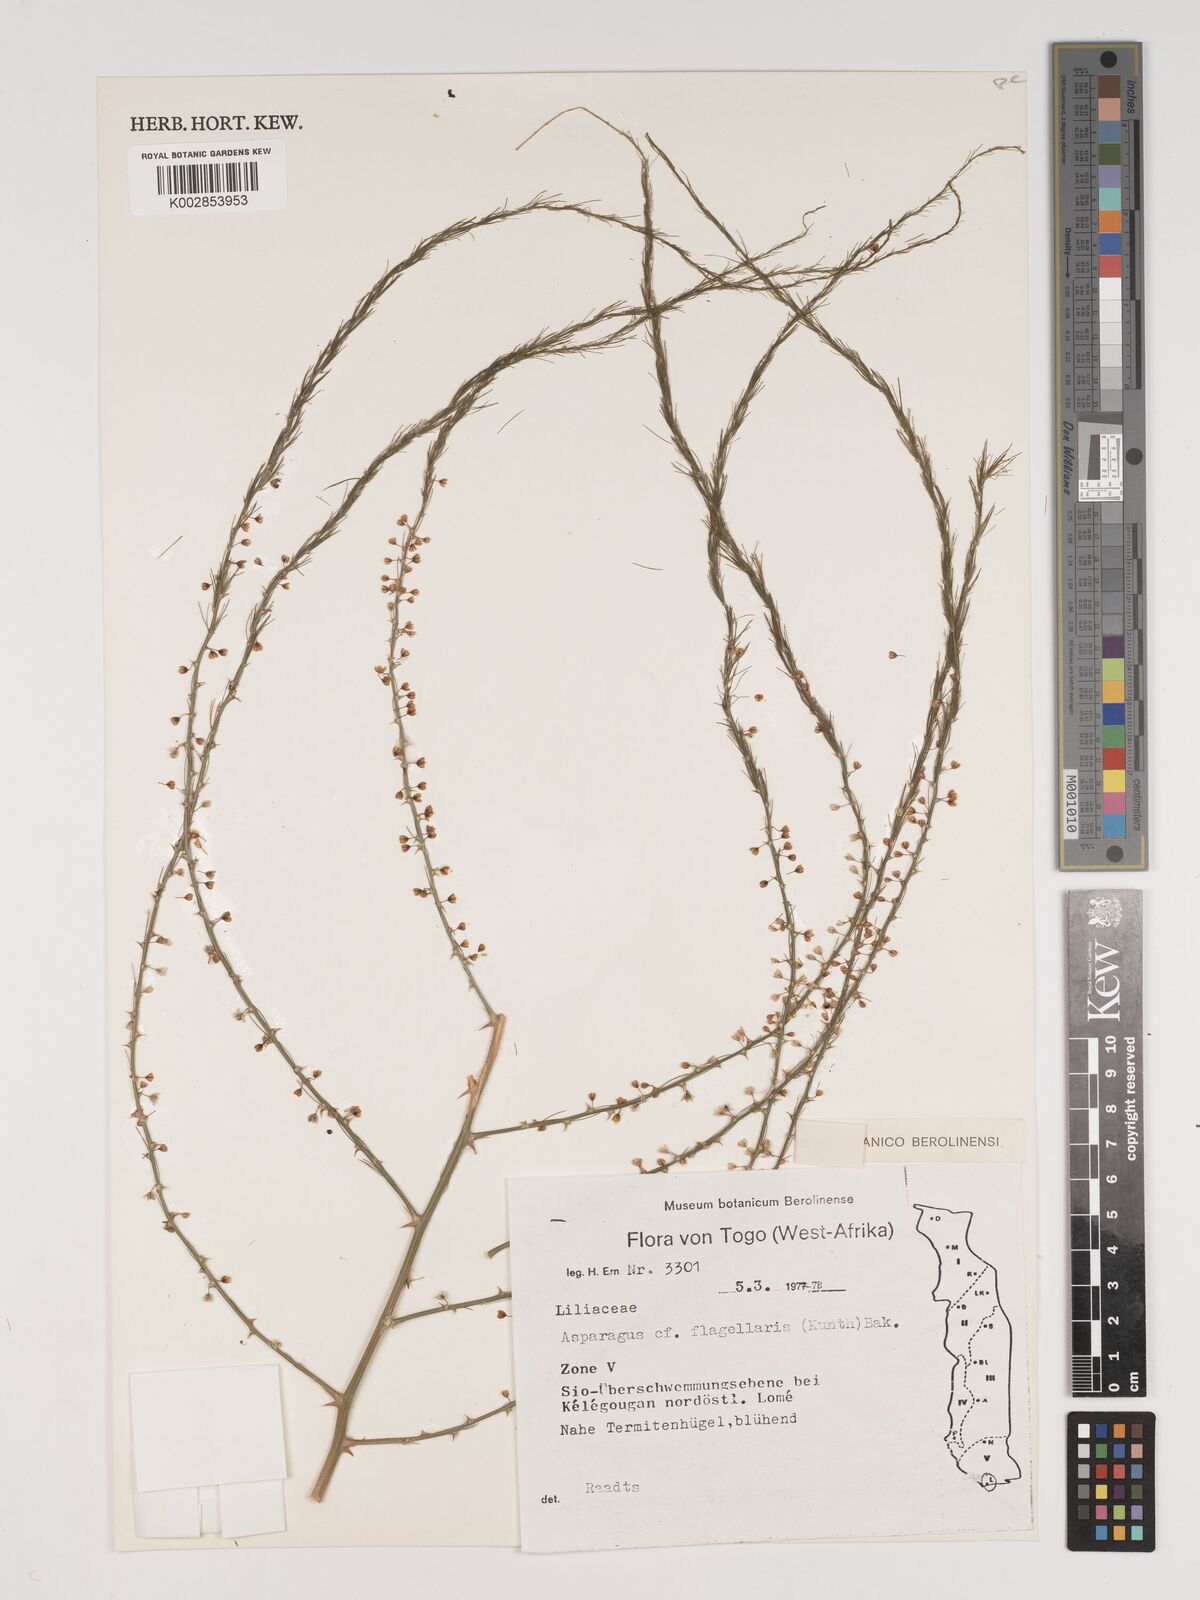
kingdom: Plantae
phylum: Tracheophyta
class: Liliopsida
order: Asparagales
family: Asparagaceae
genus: Asparagus
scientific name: Asparagus flagellaris
